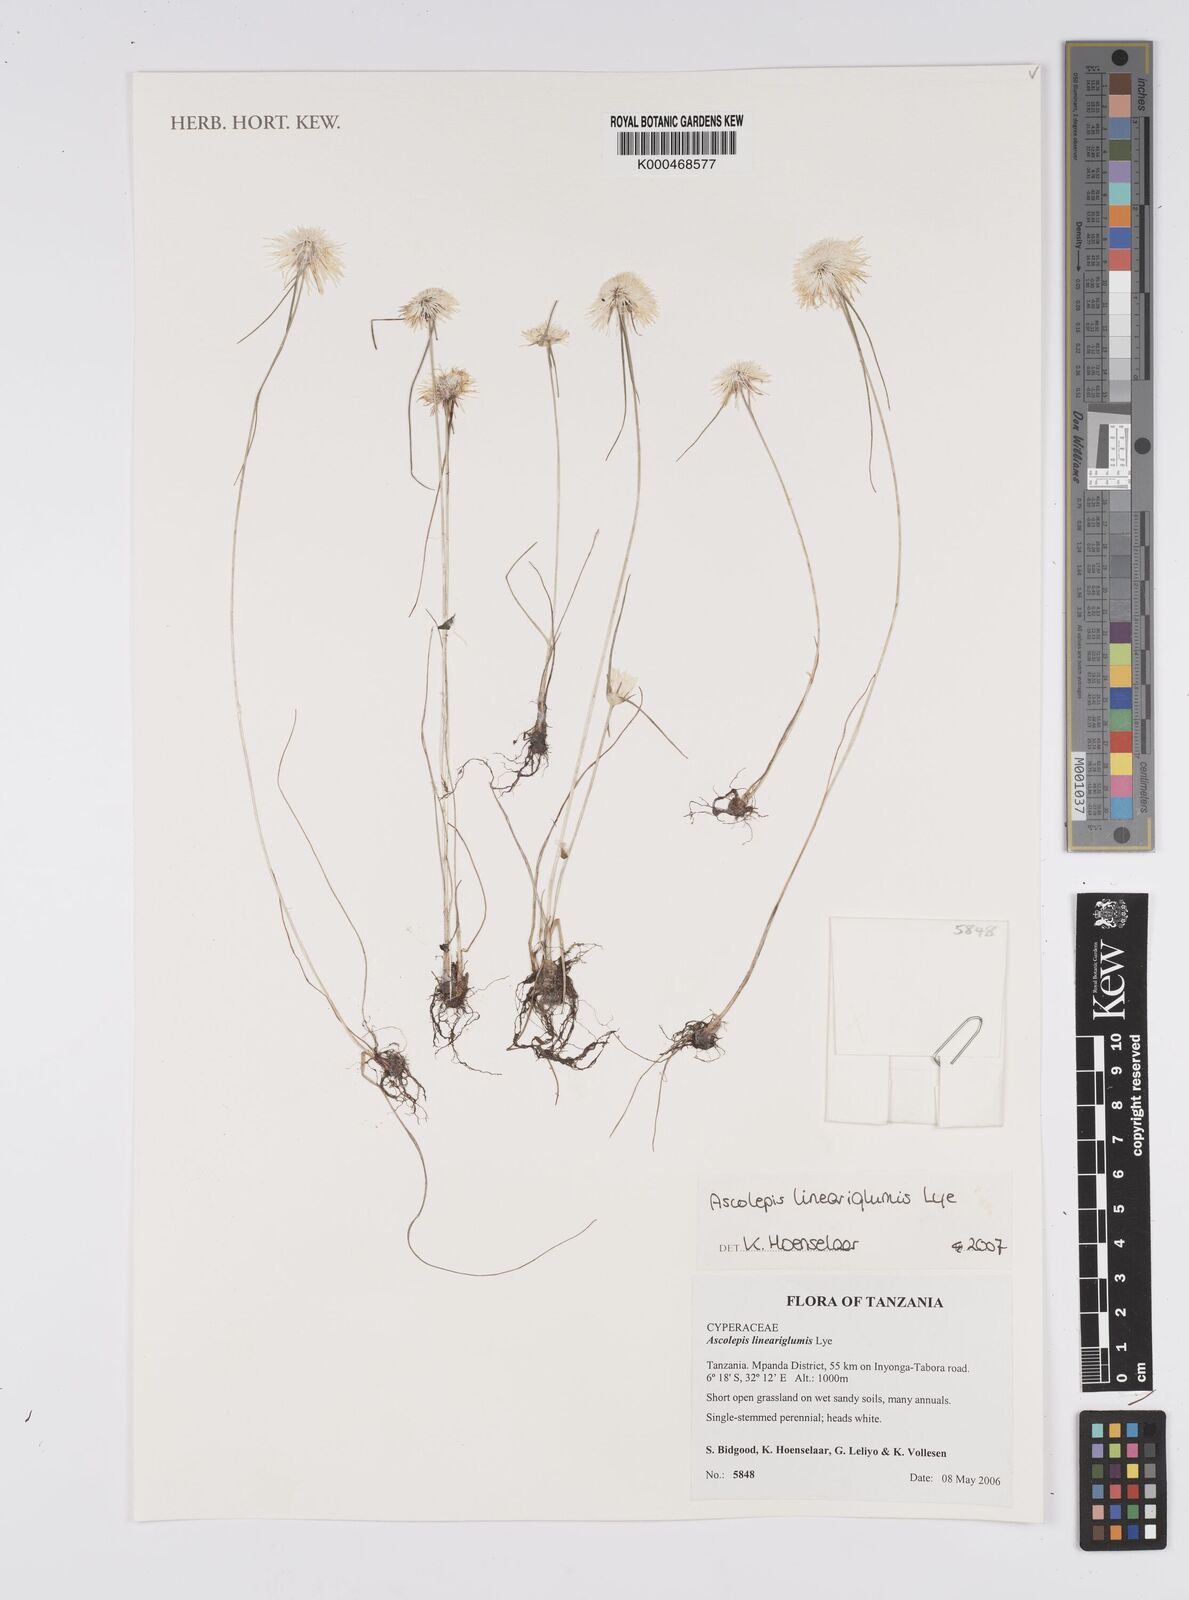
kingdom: Plantae
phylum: Tracheophyta
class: Liliopsida
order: Poales
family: Cyperaceae
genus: Cyperus
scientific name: Cyperus proteus
